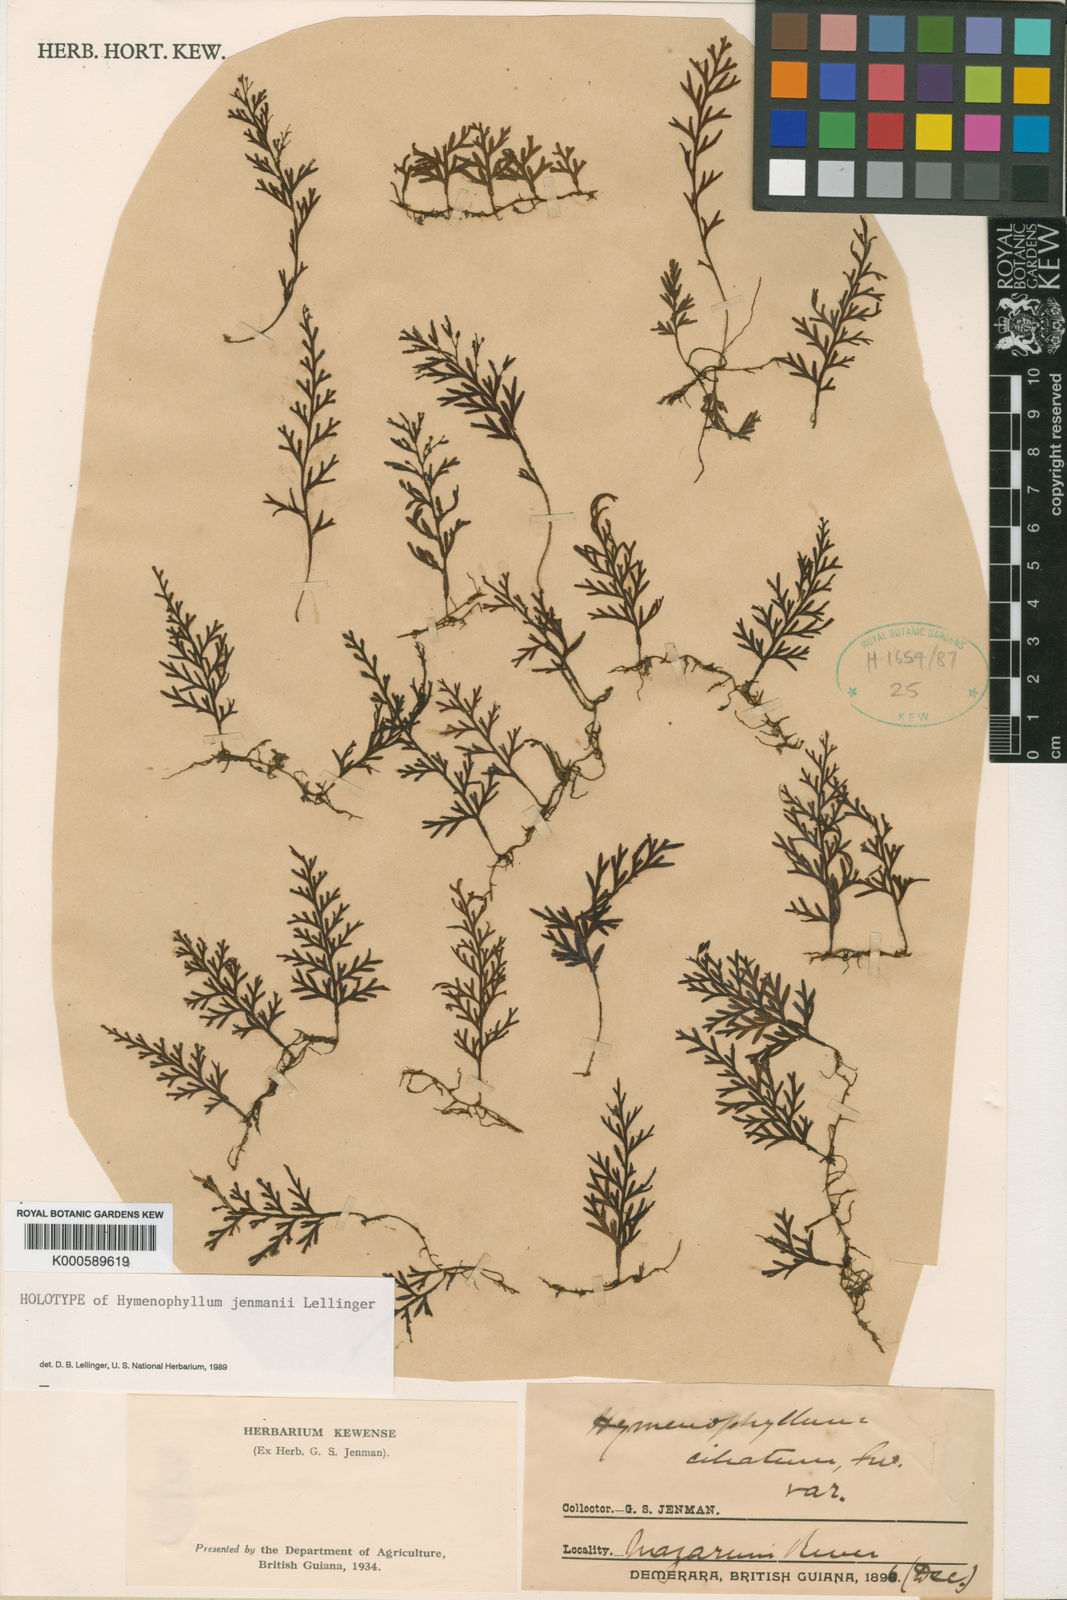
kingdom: Plantae
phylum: Tracheophyta
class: Polypodiopsida
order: Hymenophyllales
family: Hymenophyllaceae
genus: Hymenophyllum
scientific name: Hymenophyllum
